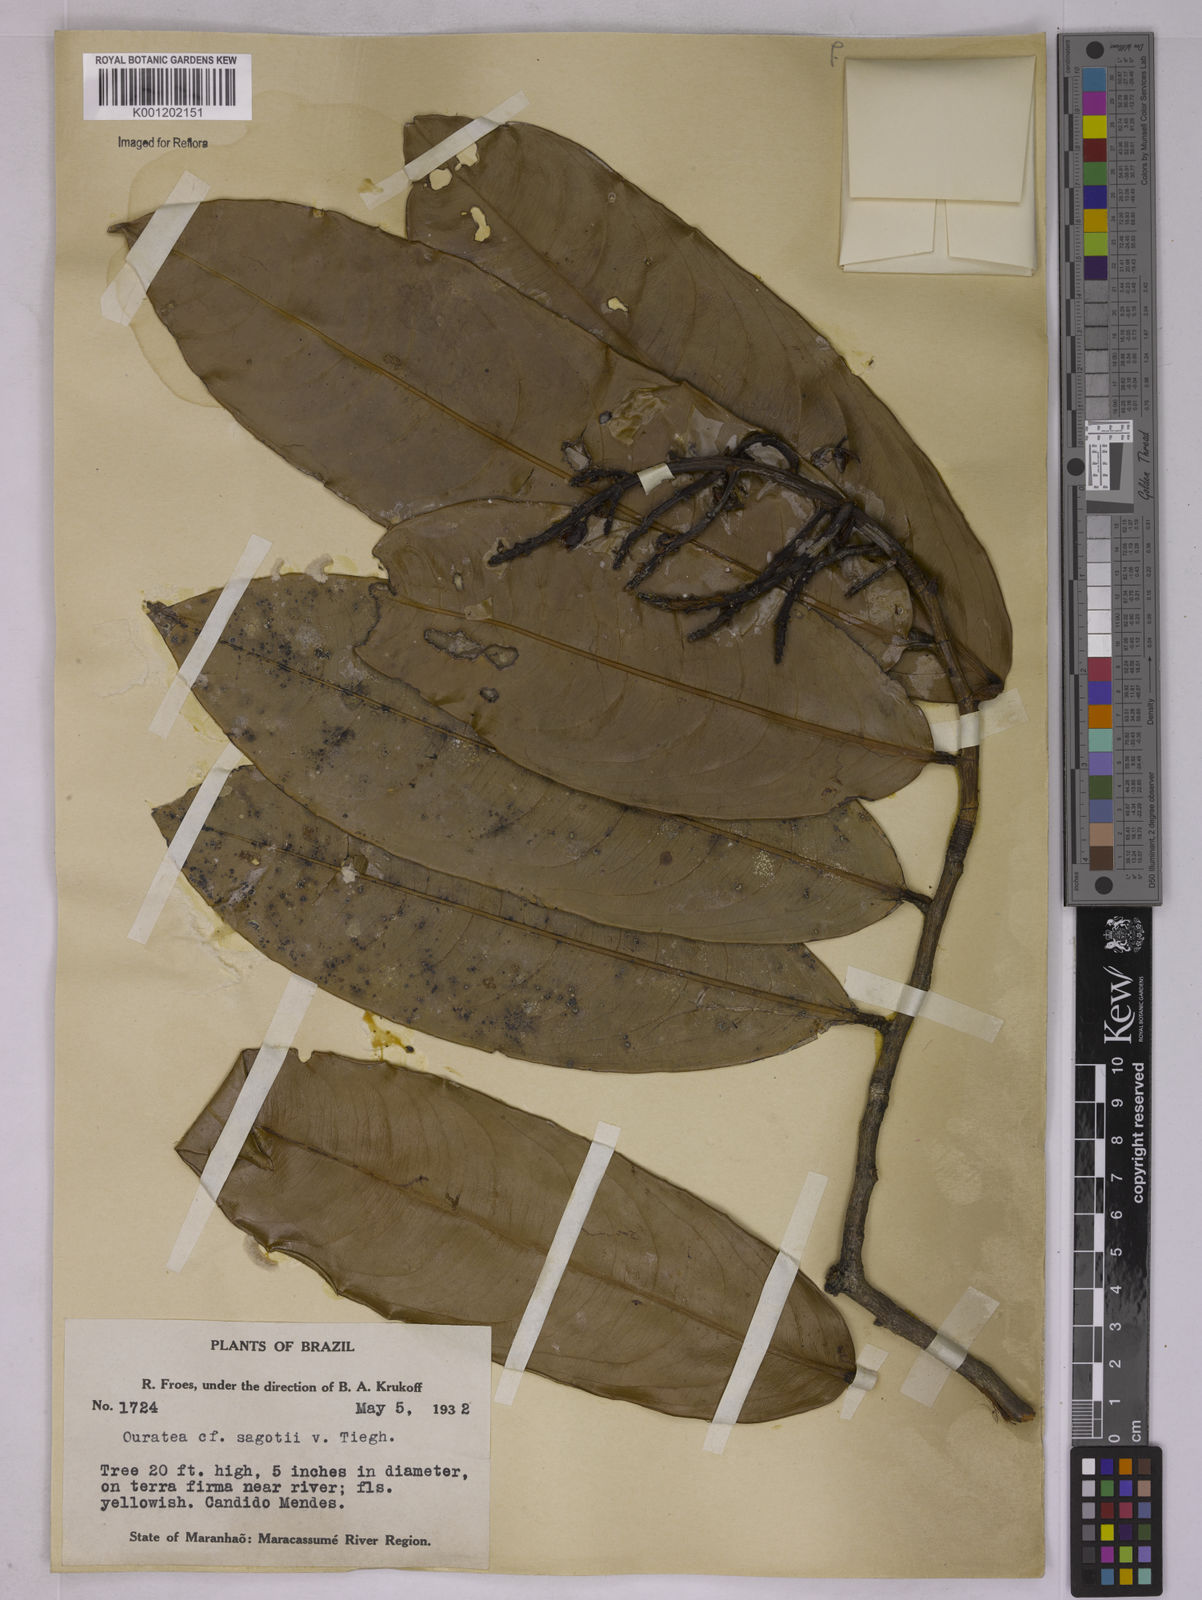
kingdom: Plantae
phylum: Tracheophyta
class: Magnoliopsida
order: Malpighiales
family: Ochnaceae
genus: Elvasia
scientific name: Elvasia elvasioides
